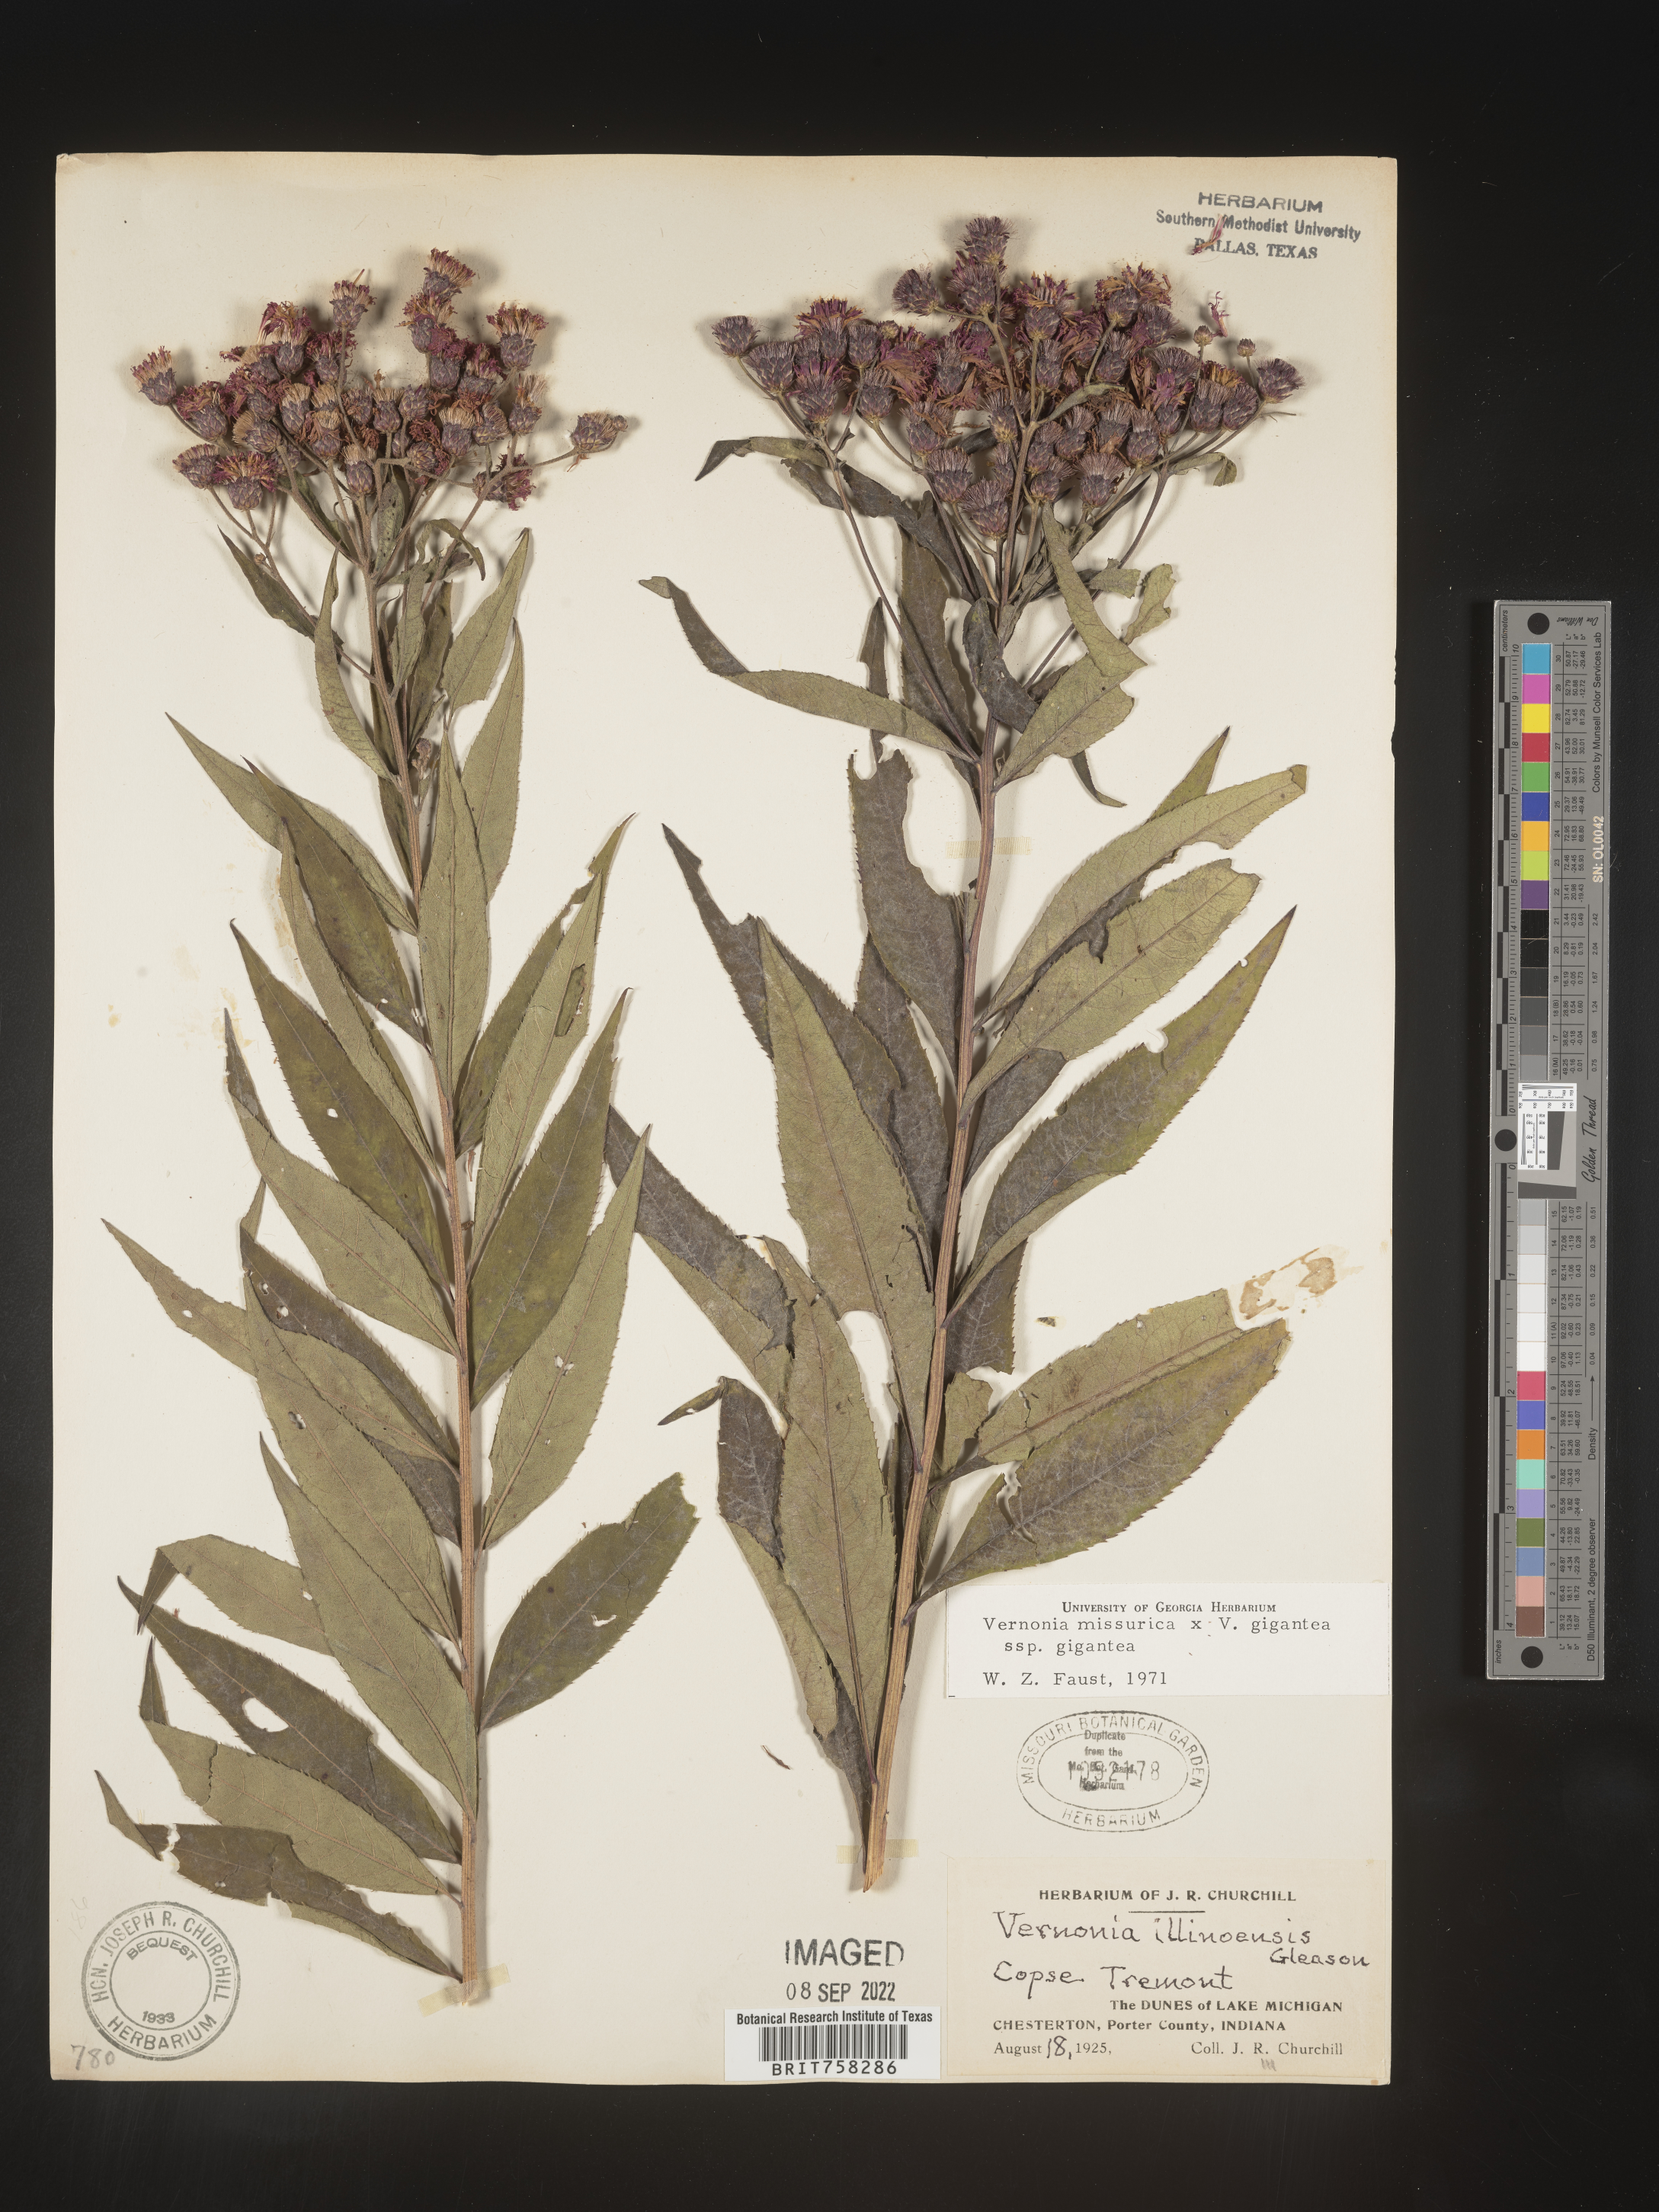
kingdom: Plantae
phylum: Tracheophyta
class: Magnoliopsida
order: Asterales
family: Asteraceae
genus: Vernonia
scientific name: Vernonia gigantea
